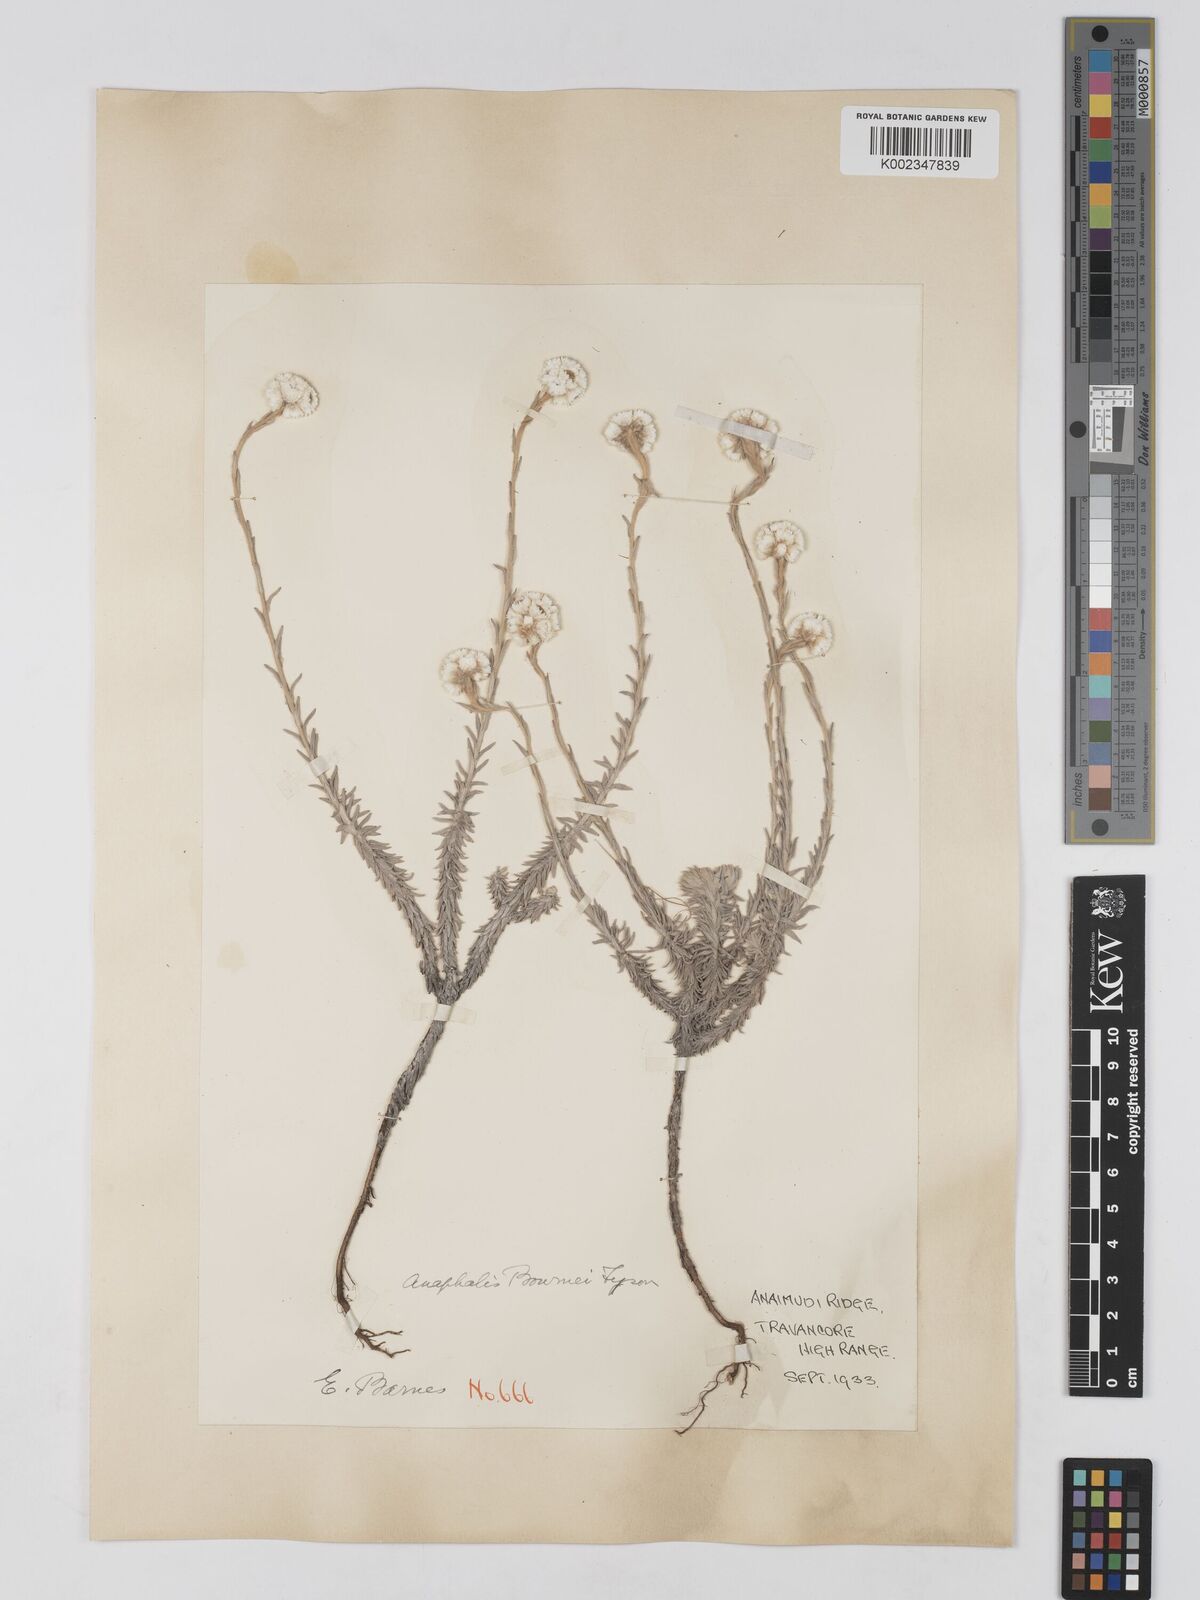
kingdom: Plantae
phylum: Tracheophyta
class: Magnoliopsida
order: Asterales
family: Asteraceae
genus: Anaphalis
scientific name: Anaphalis bournei
